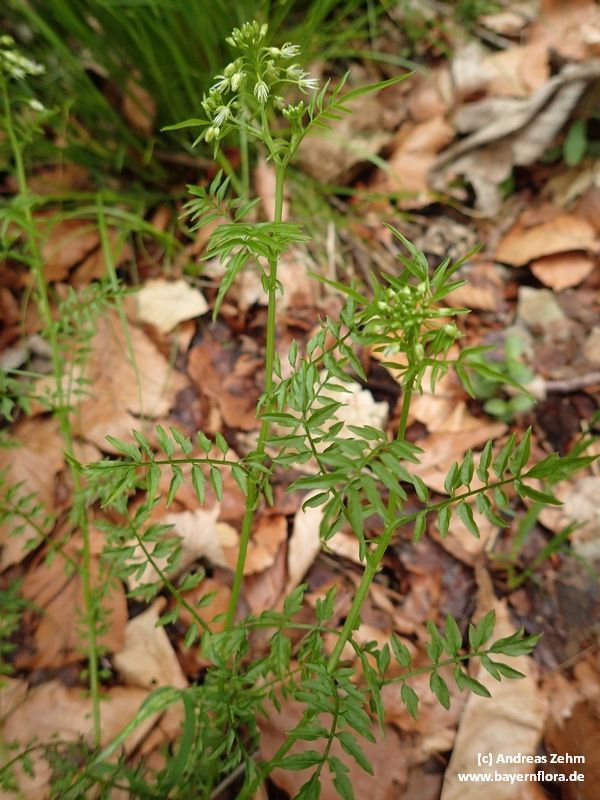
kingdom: Plantae
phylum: Tracheophyta
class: Magnoliopsida
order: Brassicales
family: Brassicaceae
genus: Cardamine
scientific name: Cardamine impatiens
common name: Narrow-leaved bitter-cress
